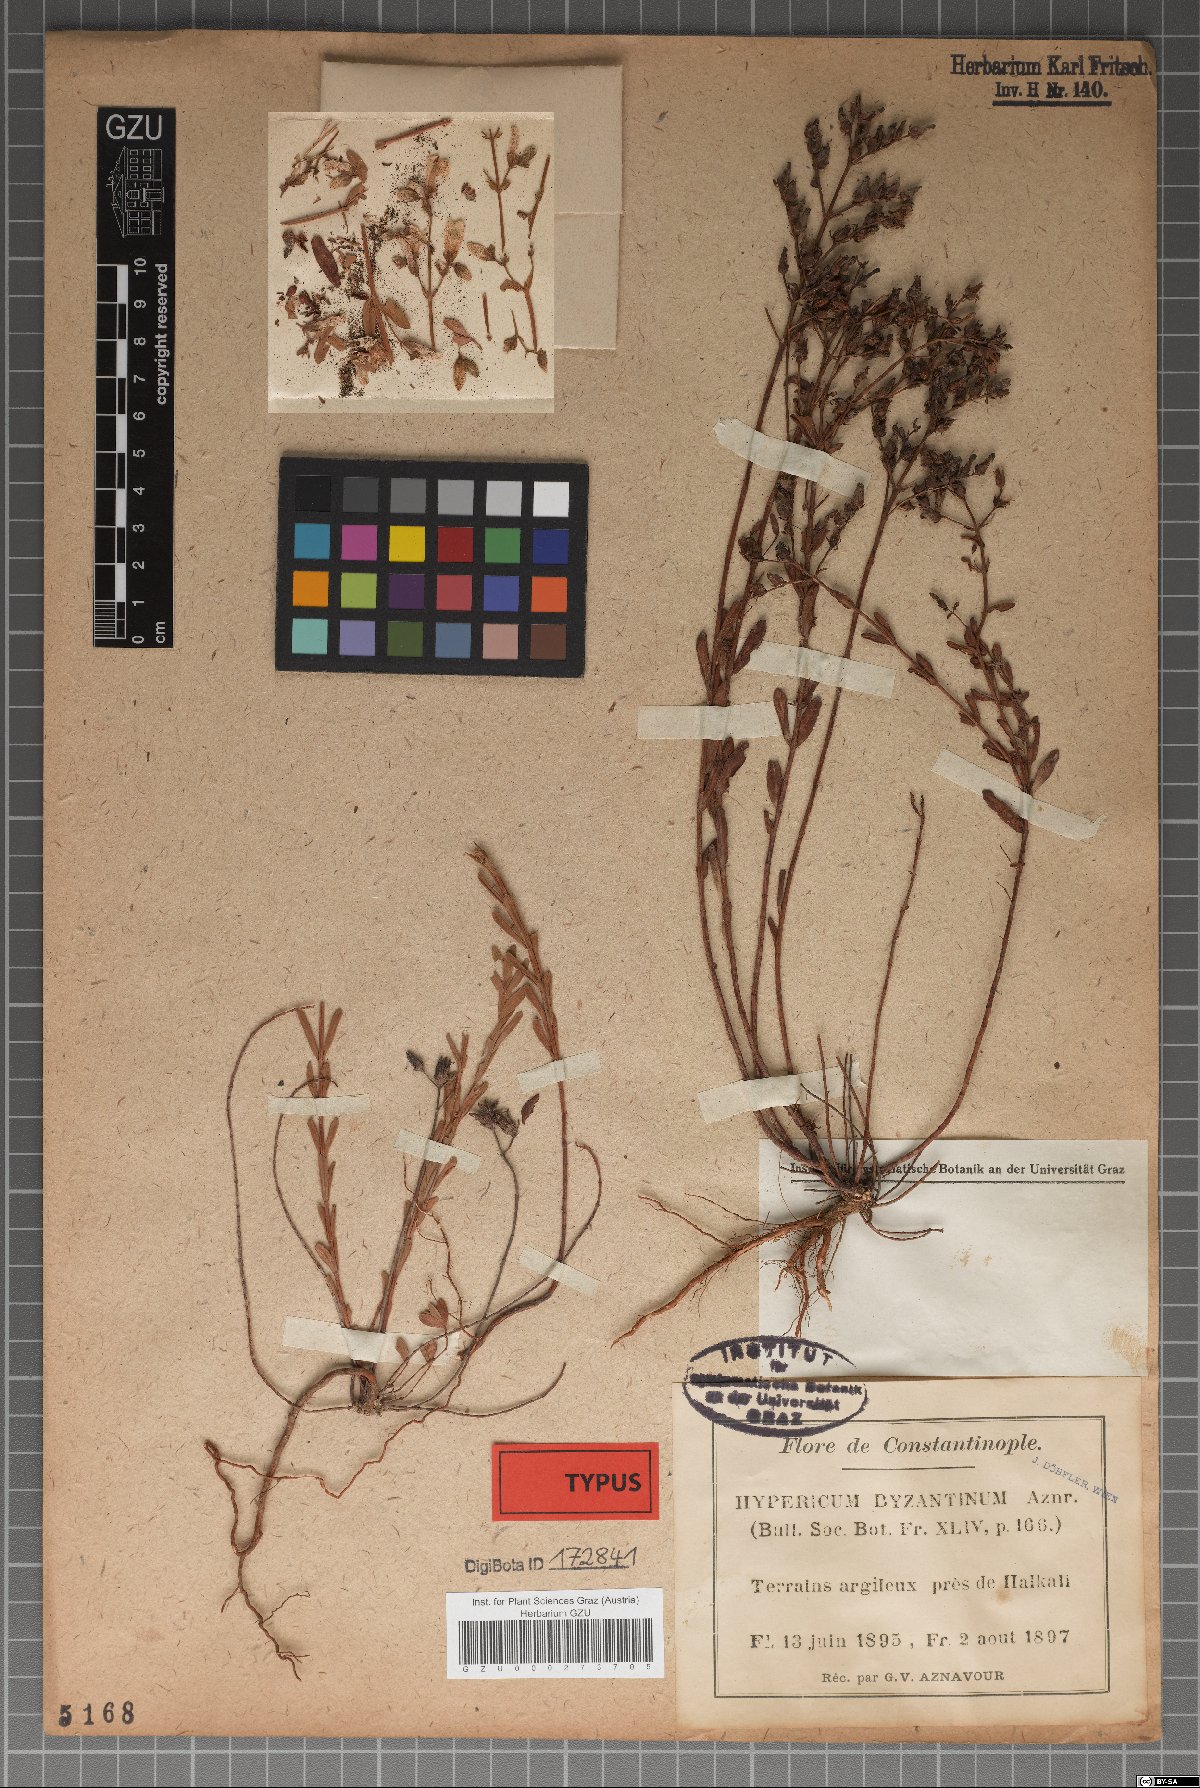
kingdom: Plantae
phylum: Tracheophyta
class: Magnoliopsida
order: Malpighiales
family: Hypericaceae
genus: Hypericum
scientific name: Hypericum byzantinum
